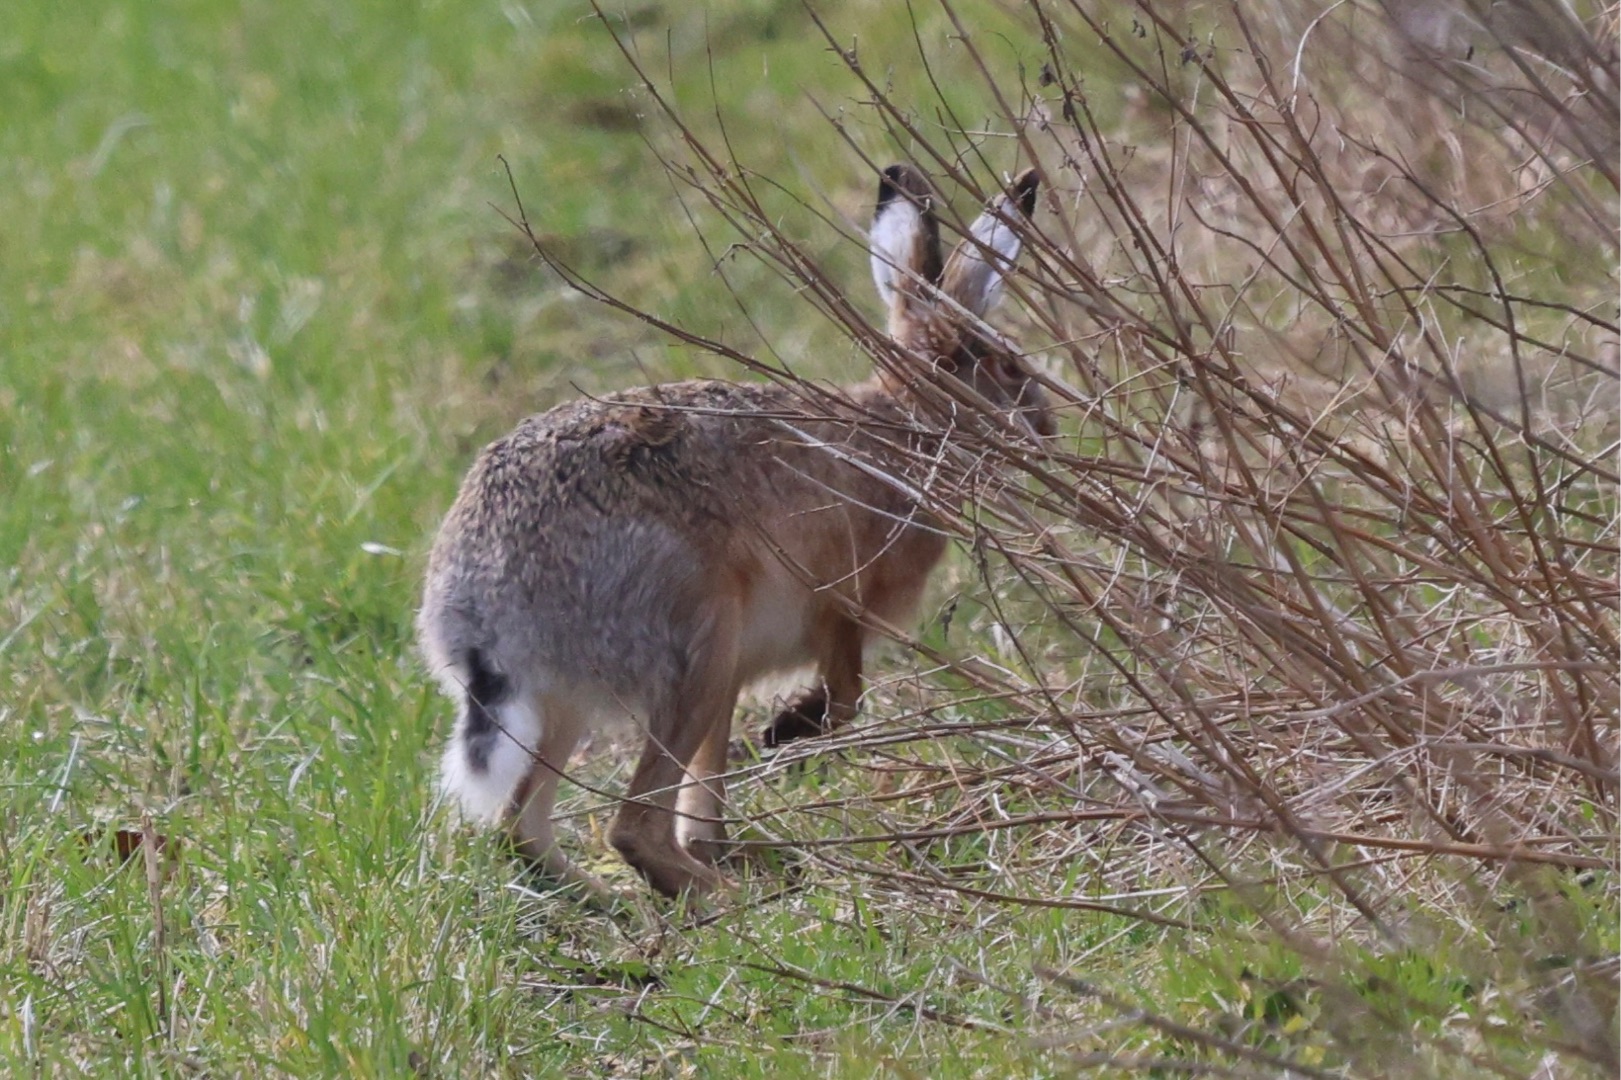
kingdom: Animalia
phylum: Chordata
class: Mammalia
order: Lagomorpha
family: Leporidae
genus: Lepus
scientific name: Lepus europaeus
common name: Hare
